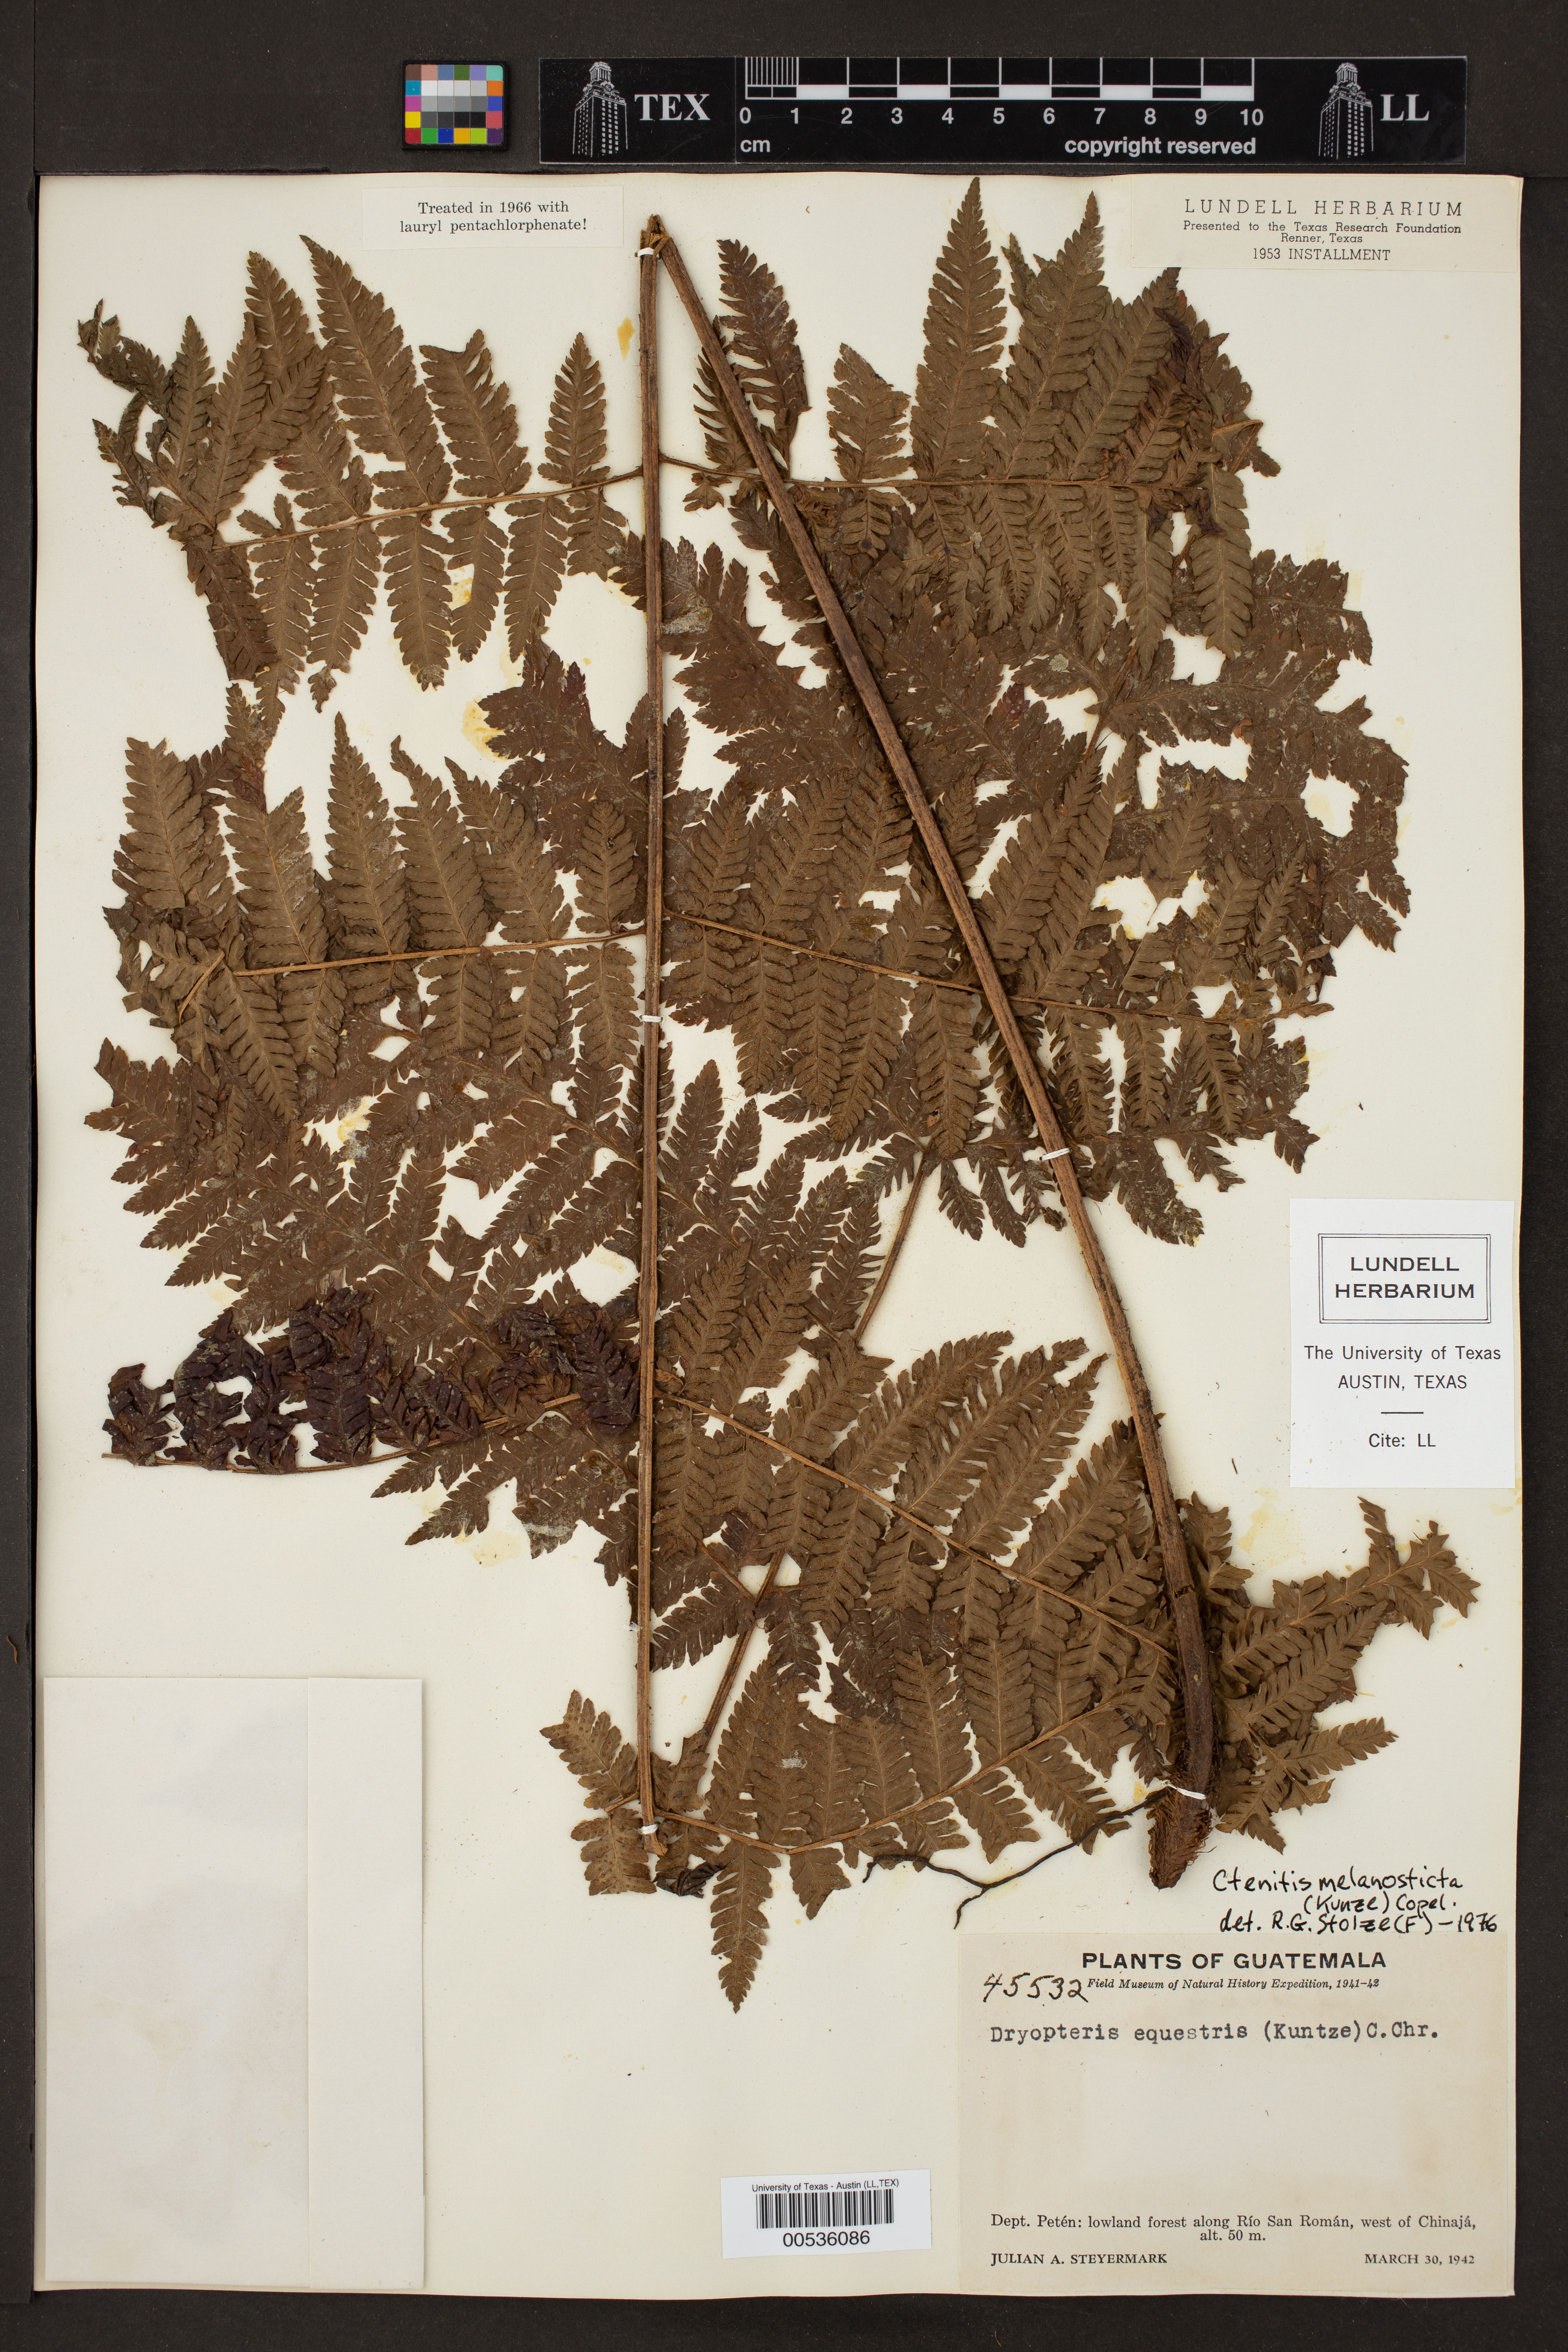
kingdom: Plantae
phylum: Tracheophyta
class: Polypodiopsida
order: Polypodiales
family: Dryopteridaceae
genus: Ctenitis
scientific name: Ctenitis melanosticta
